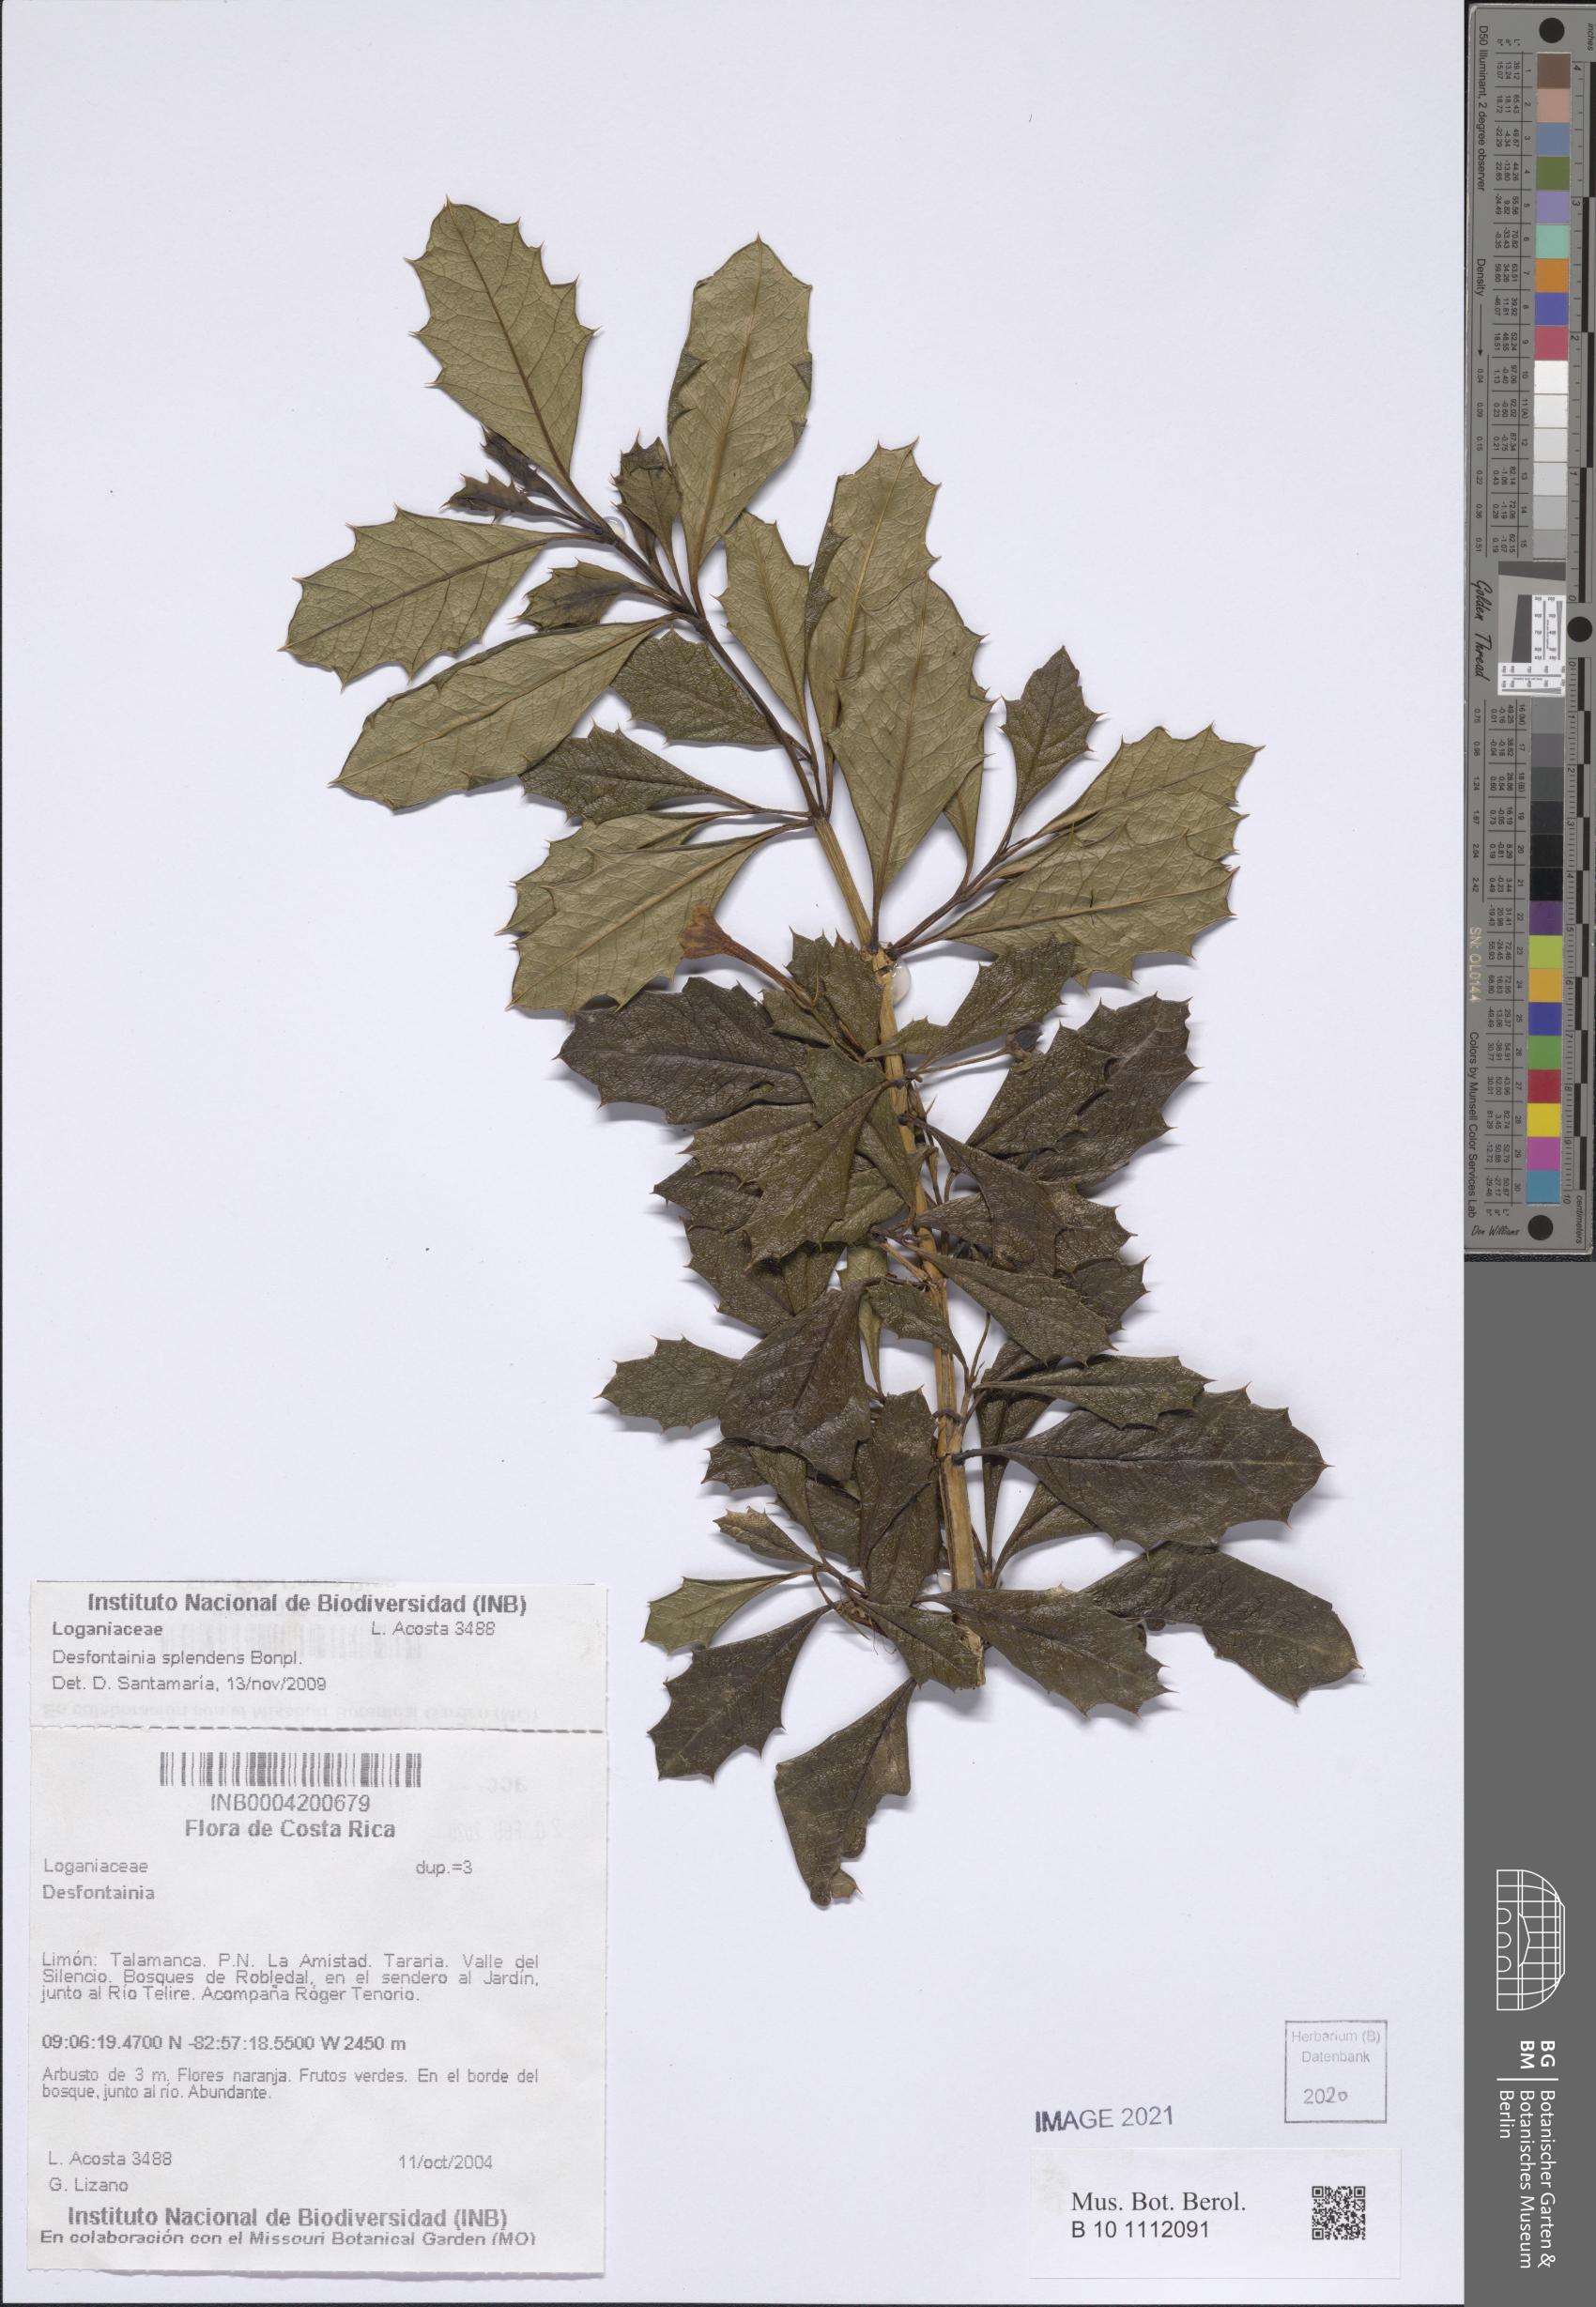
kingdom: Plantae
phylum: Tracheophyta
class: Magnoliopsida
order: Bruniales
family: Columelliaceae
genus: Desfontainia
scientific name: Desfontainia splendens
